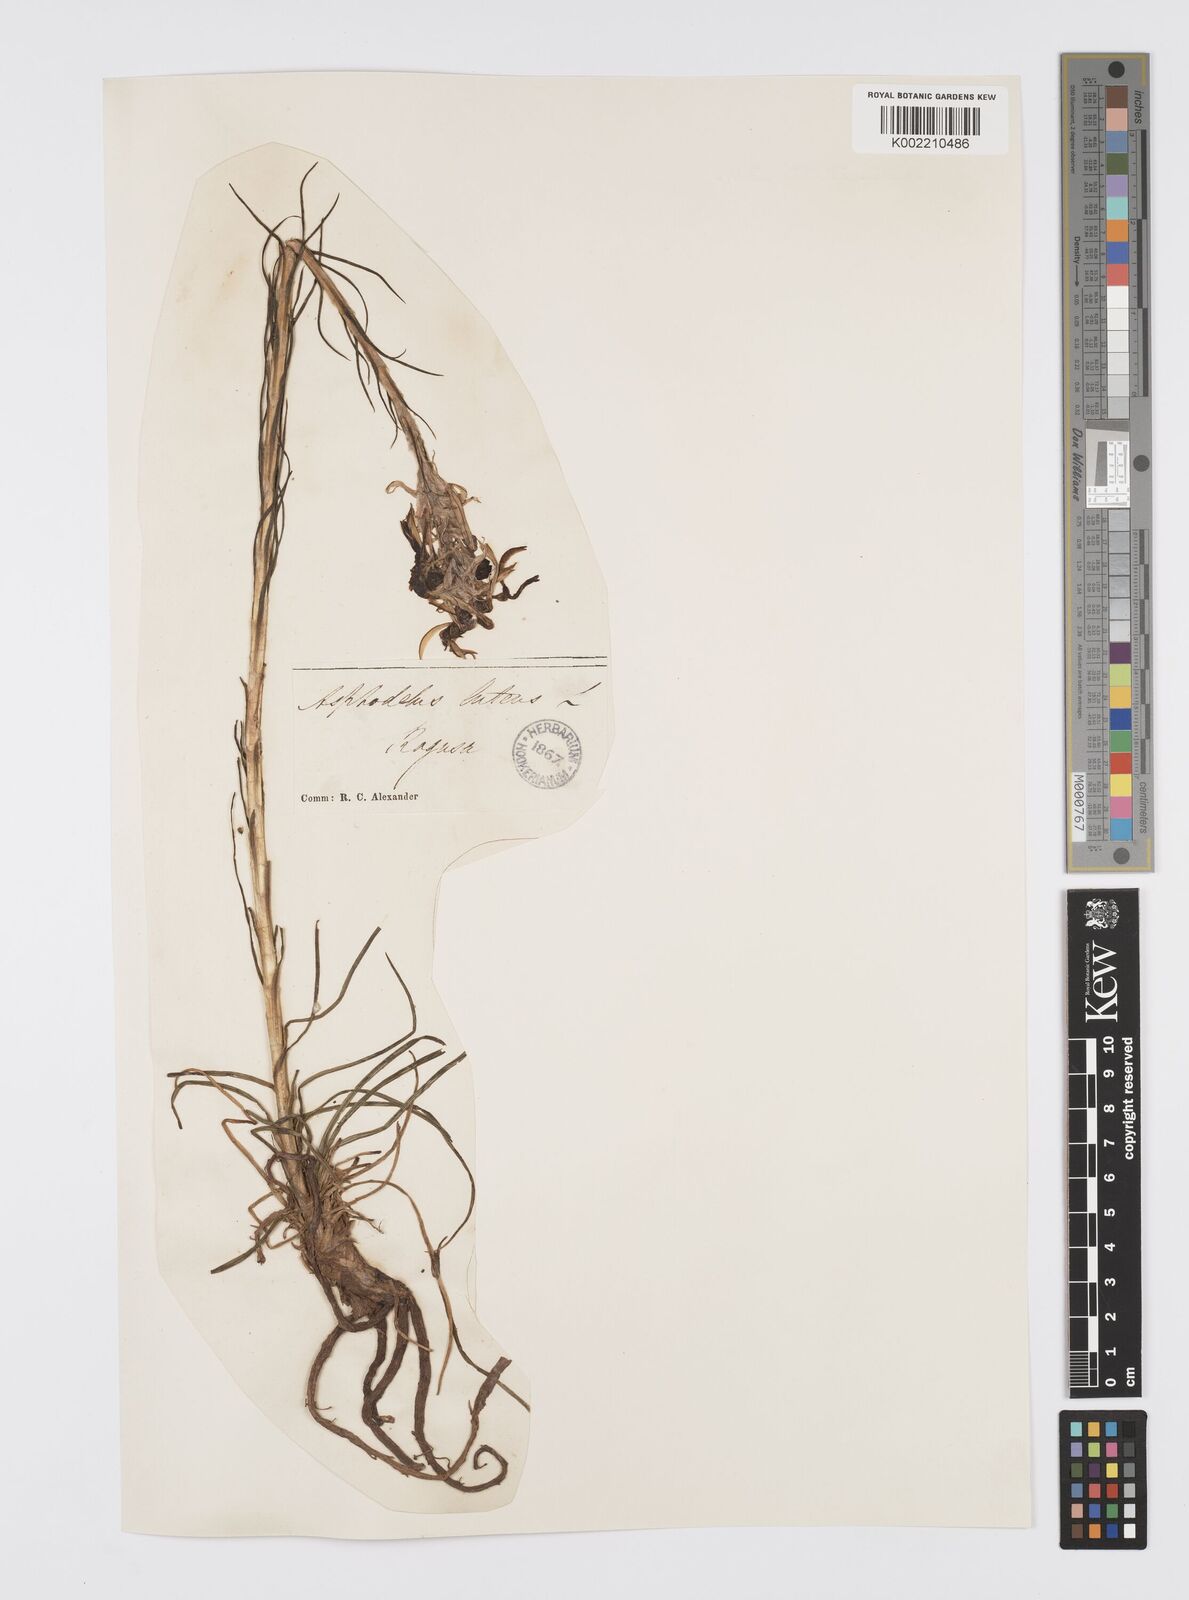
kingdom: Plantae
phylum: Tracheophyta
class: Liliopsida
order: Asparagales
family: Asphodelaceae
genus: Asphodeline
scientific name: Asphodeline lutea
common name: Yellow asphodel
